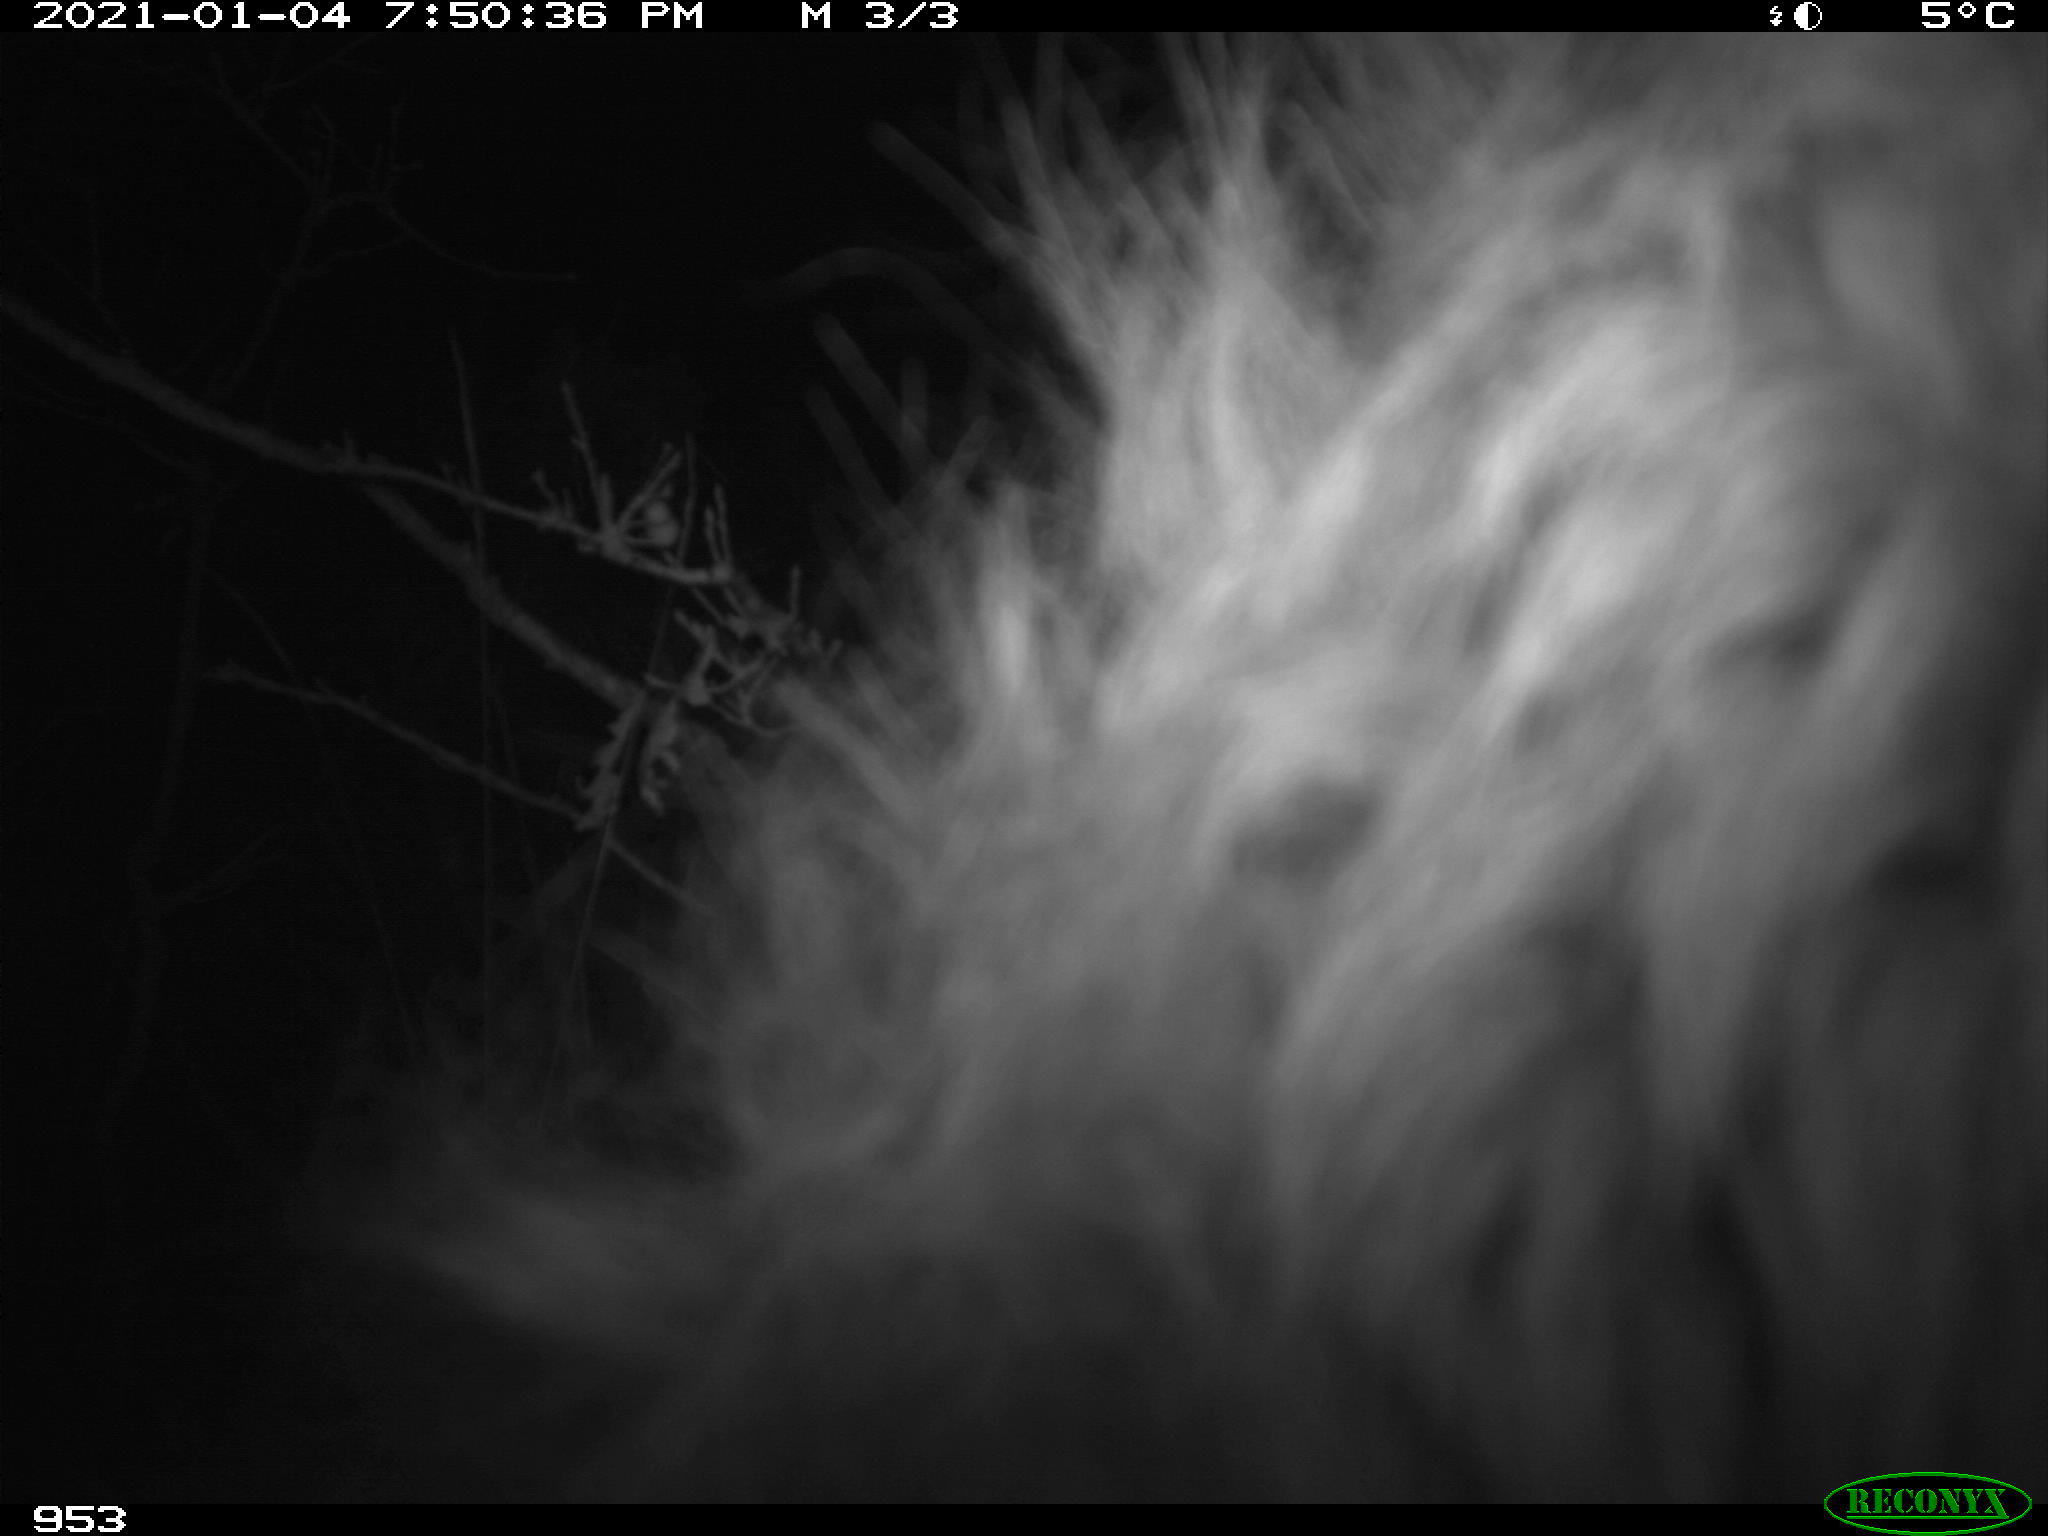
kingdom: Animalia
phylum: Chordata
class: Mammalia
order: Perissodactyla
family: Equidae
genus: Equus
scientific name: Equus caballus
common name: Horse
